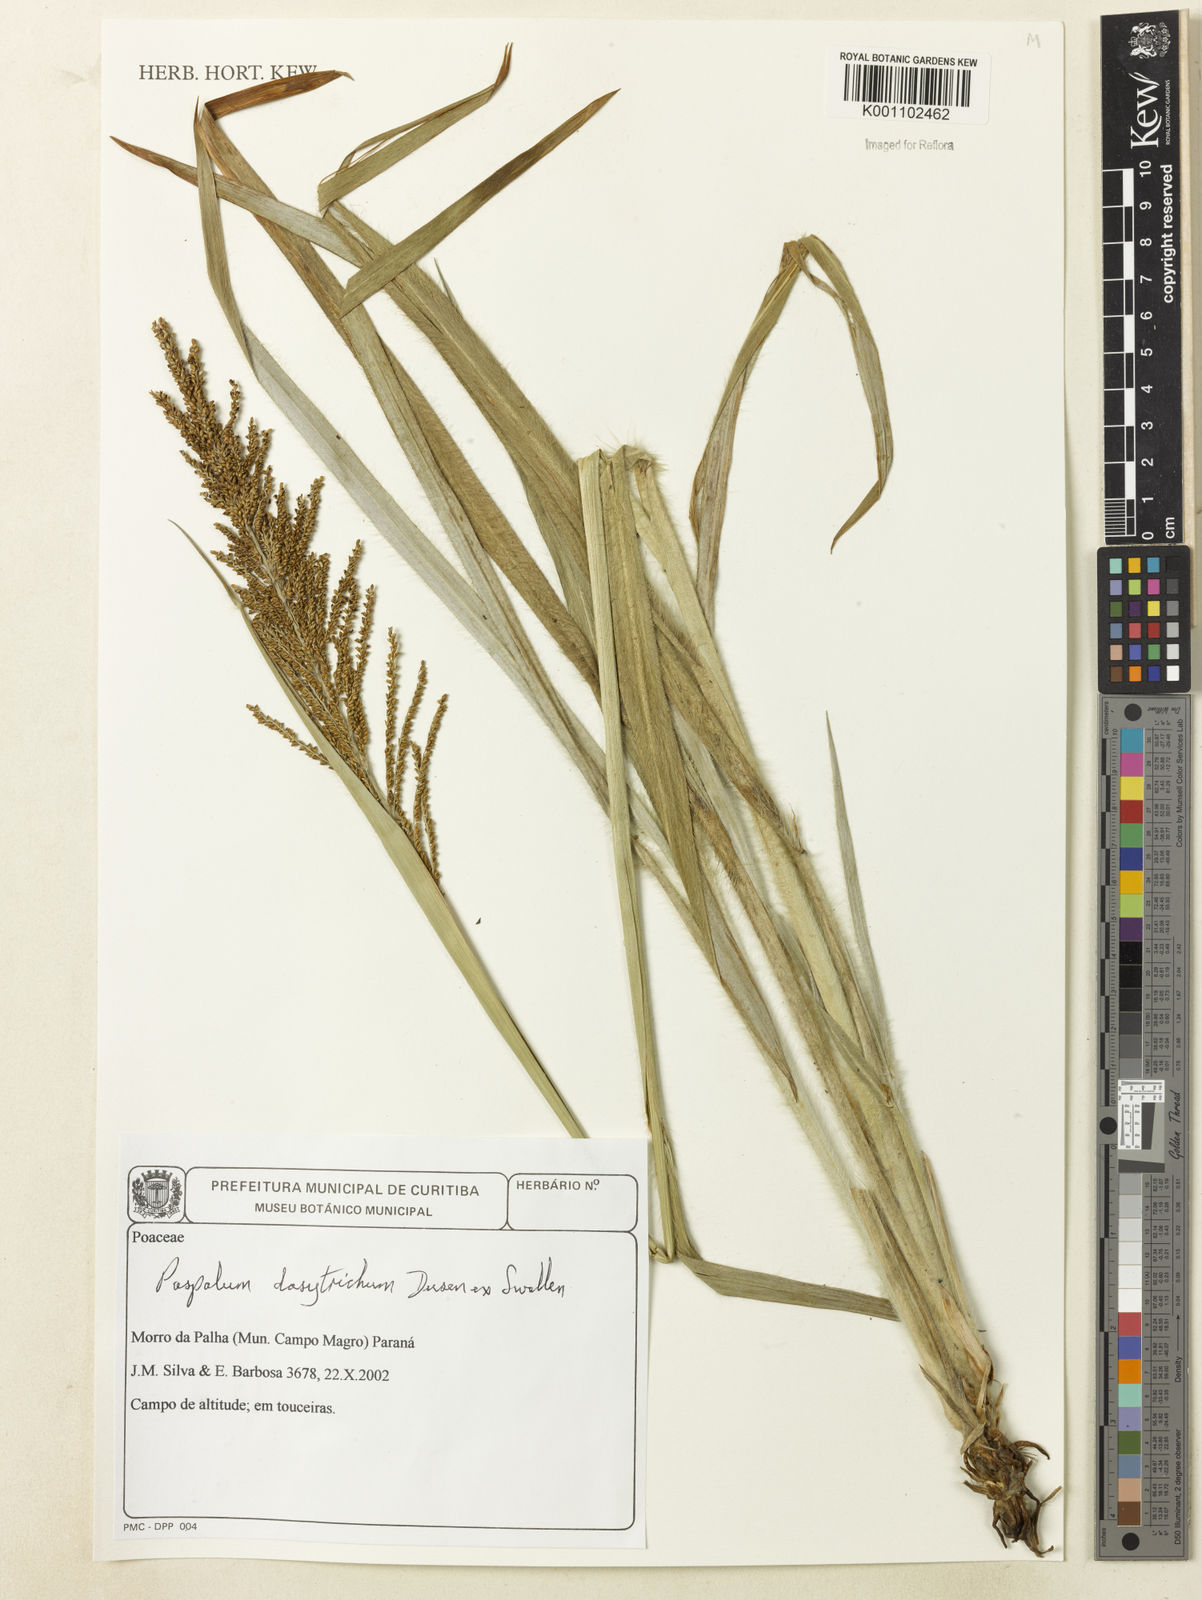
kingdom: Plantae
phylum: Tracheophyta
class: Liliopsida
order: Poales
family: Poaceae
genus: Paspalum
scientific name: Paspalum
